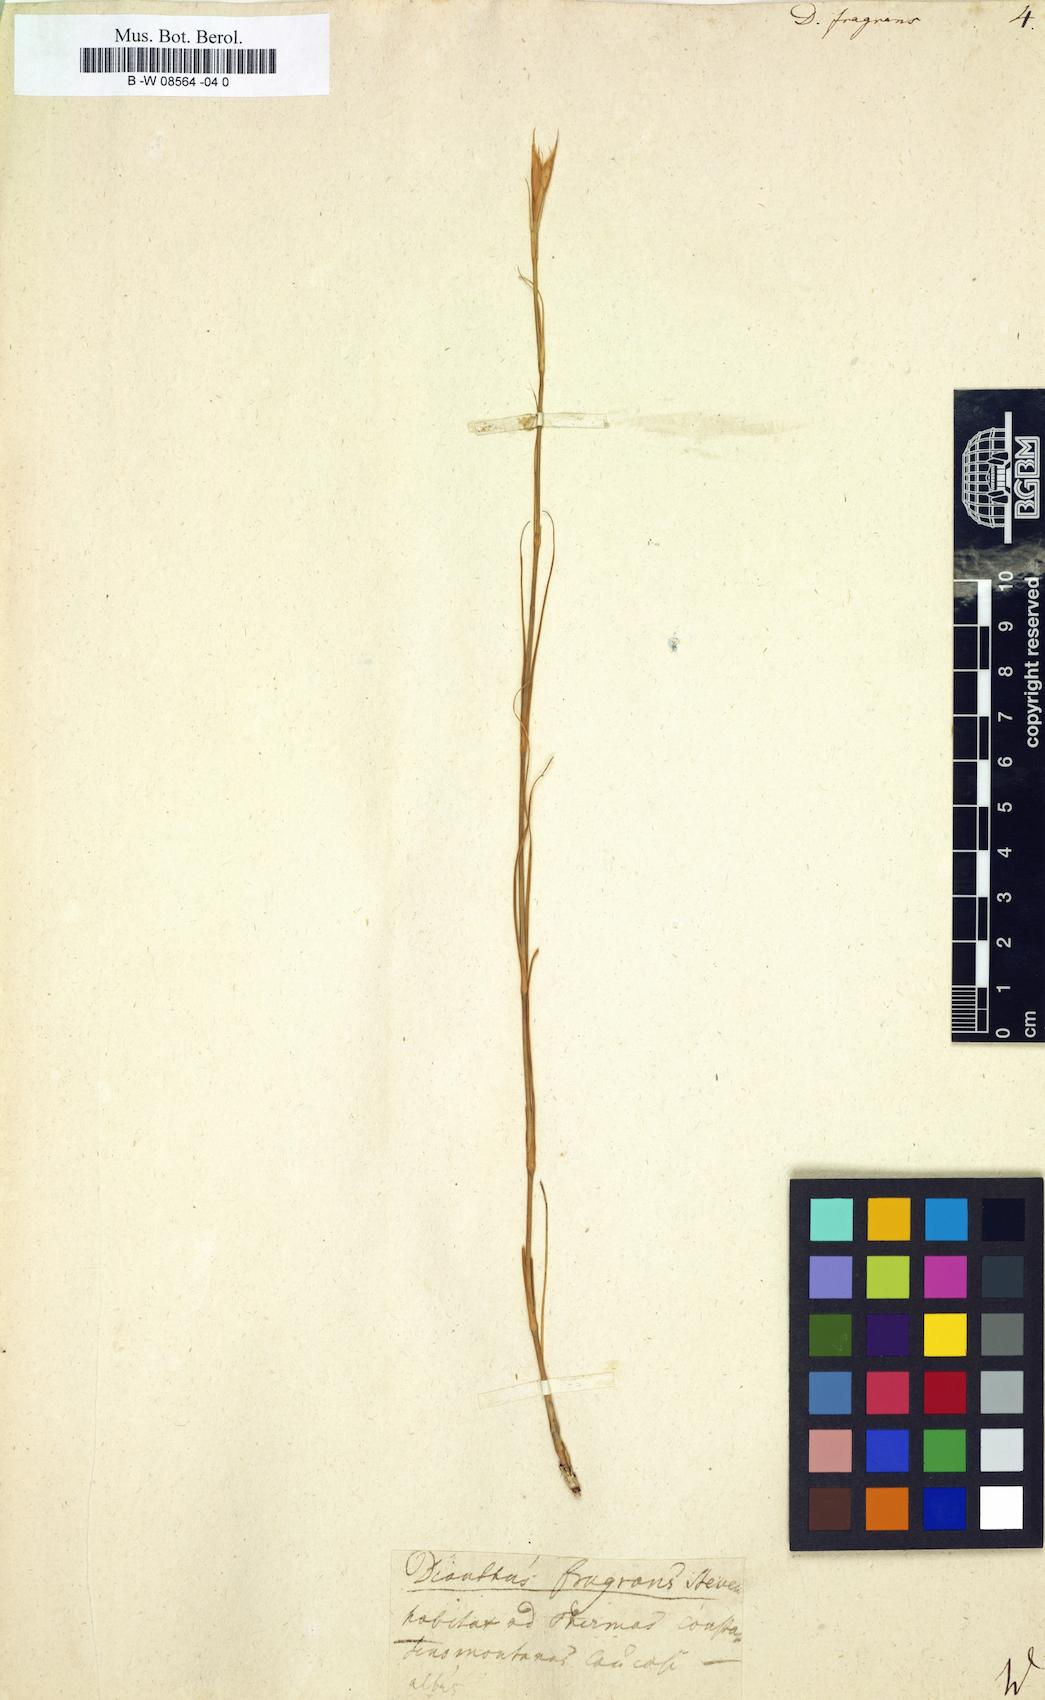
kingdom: Plantae
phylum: Tracheophyta
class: Magnoliopsida
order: Caryophyllales
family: Caryophyllaceae
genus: Dianthus
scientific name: Dianthus fragrans
